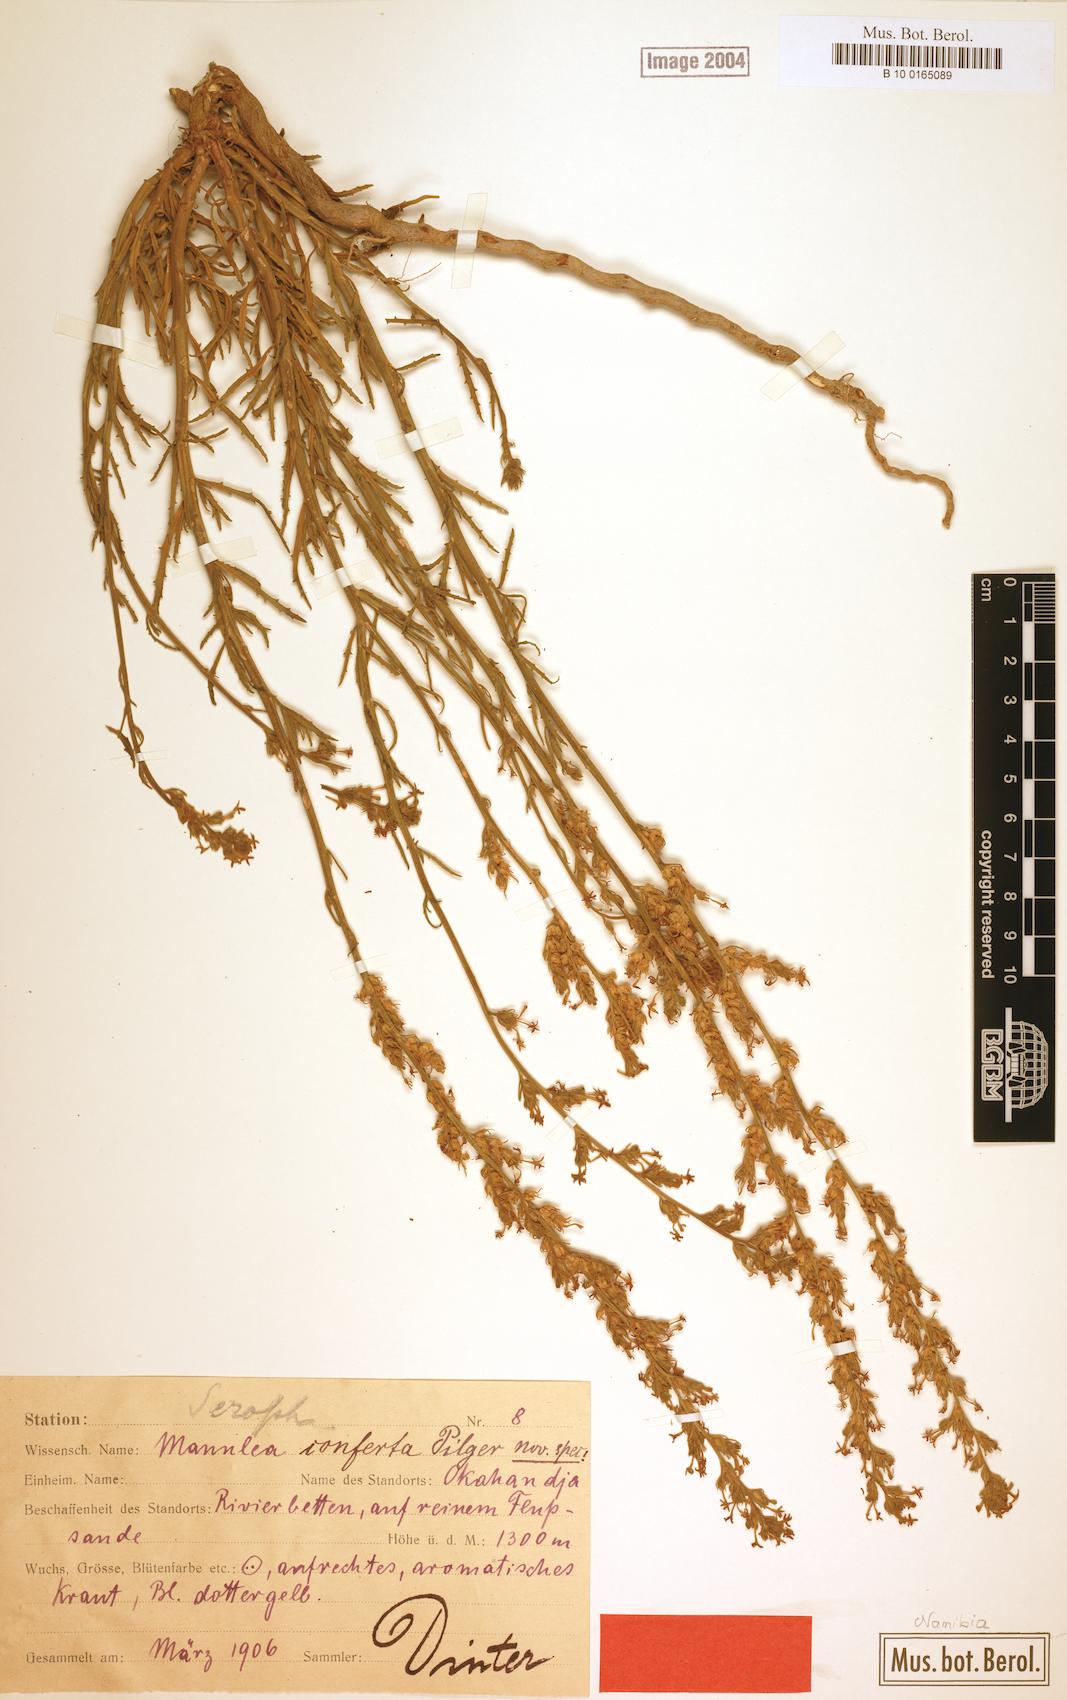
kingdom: Plantae
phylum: Tracheophyta
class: Magnoliopsida
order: Lamiales
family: Scrophulariaceae
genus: Manulea
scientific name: Manulea conferta
